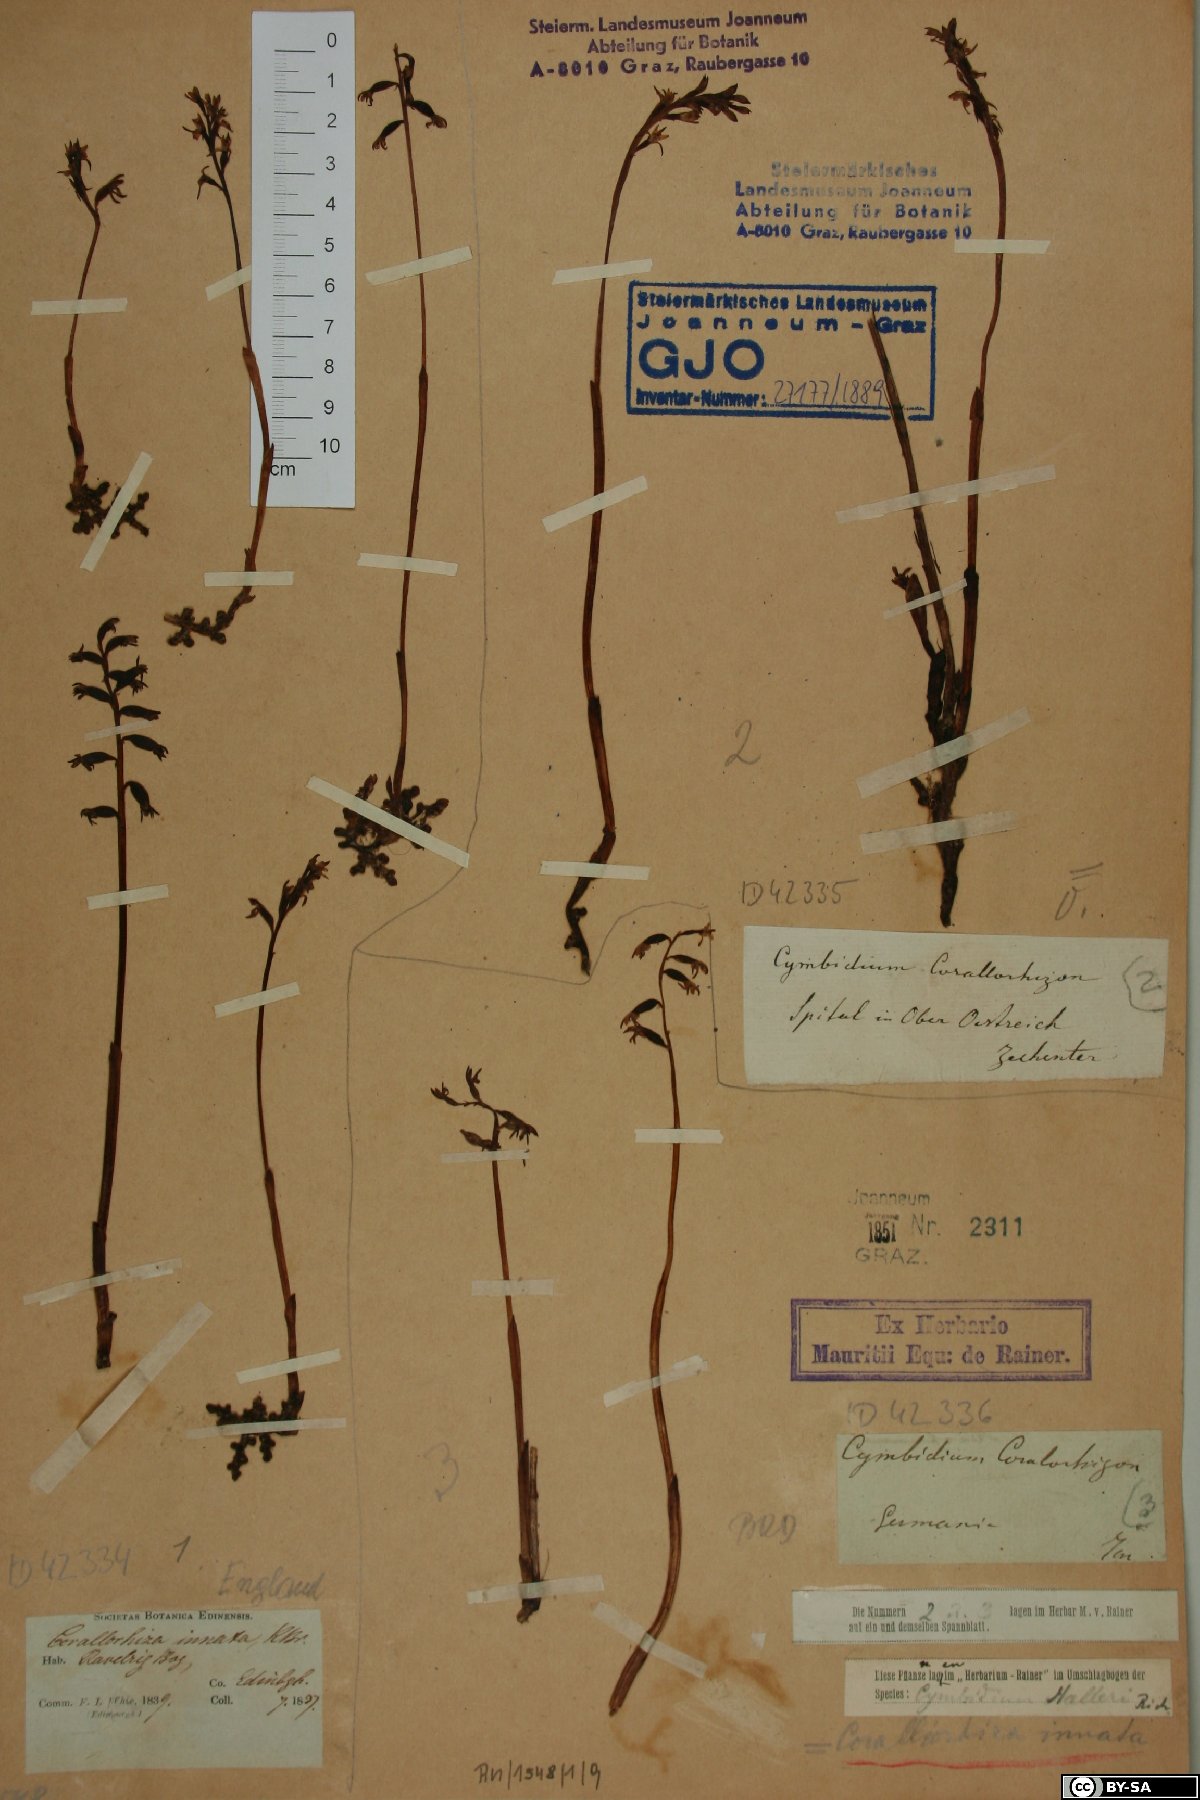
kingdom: Plantae
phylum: Tracheophyta
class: Liliopsida
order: Asparagales
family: Orchidaceae
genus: Corallorhiza
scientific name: Corallorhiza trifida
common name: Yellow coralroot
